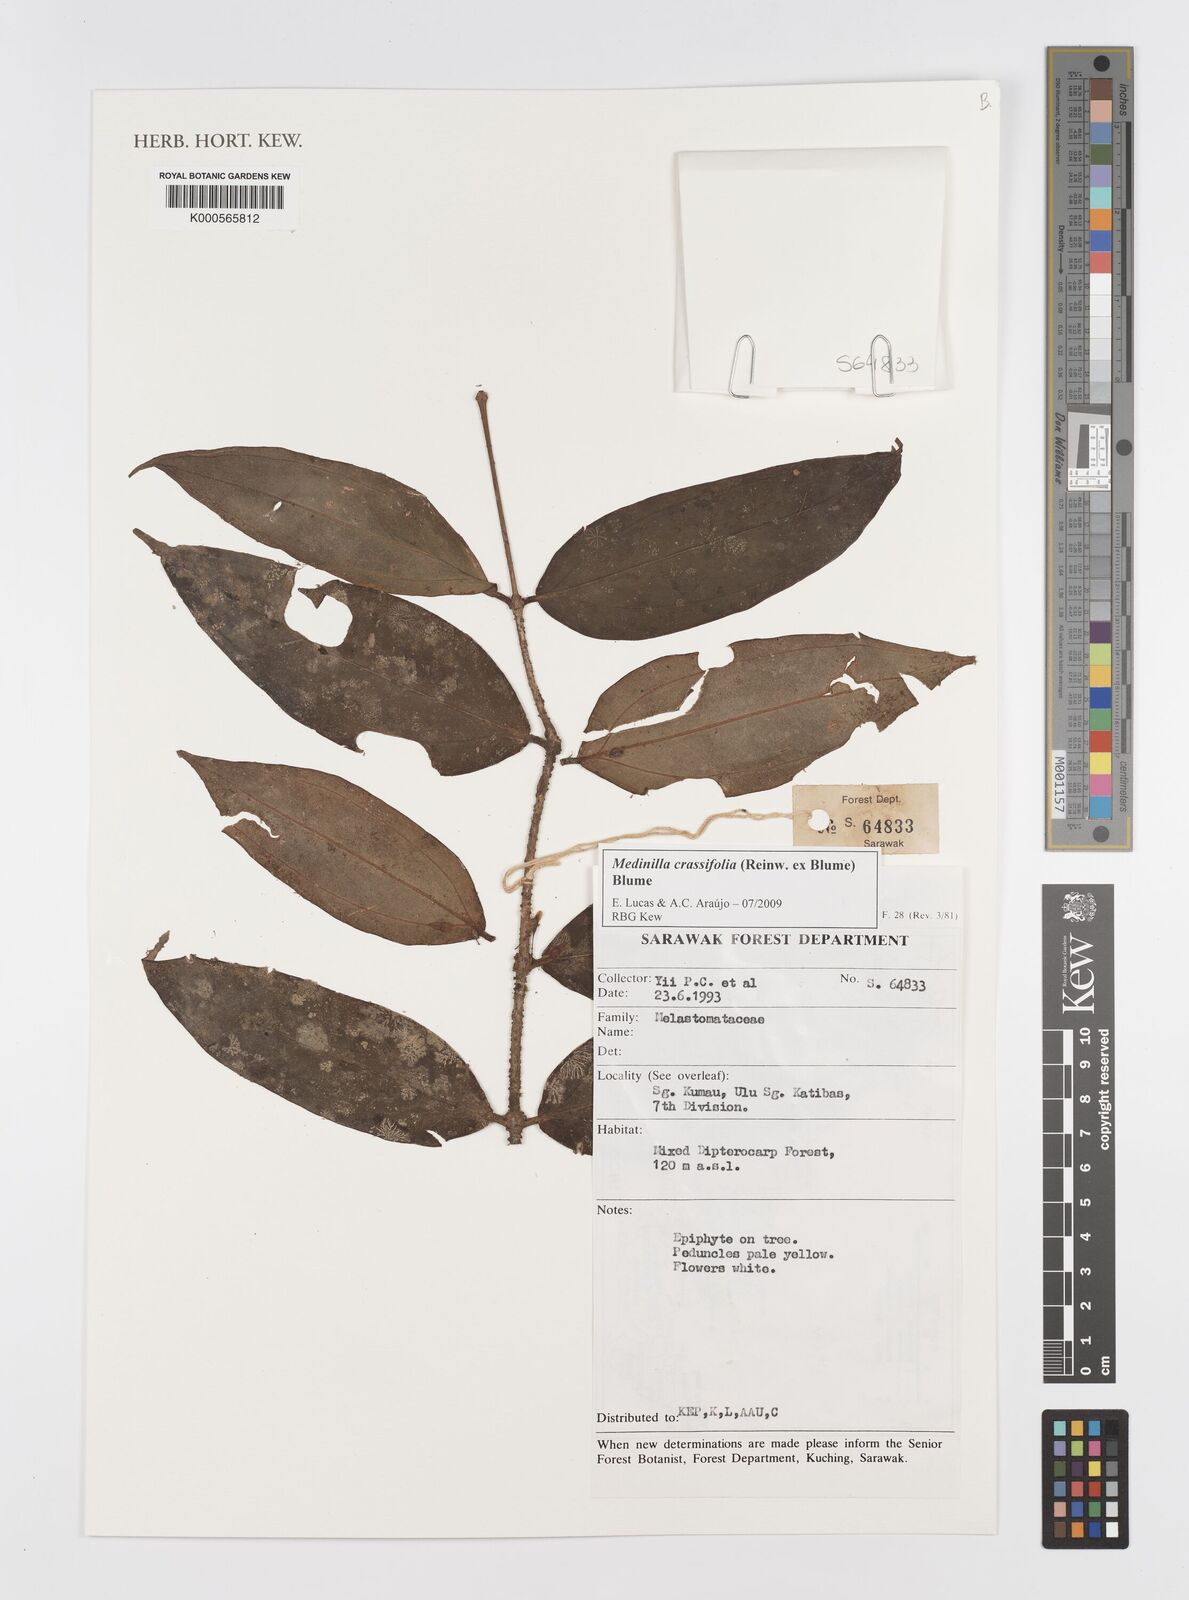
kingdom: Plantae
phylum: Tracheophyta
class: Magnoliopsida
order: Myrtales
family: Melastomataceae
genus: Medinilla
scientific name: Medinilla crassifolia
